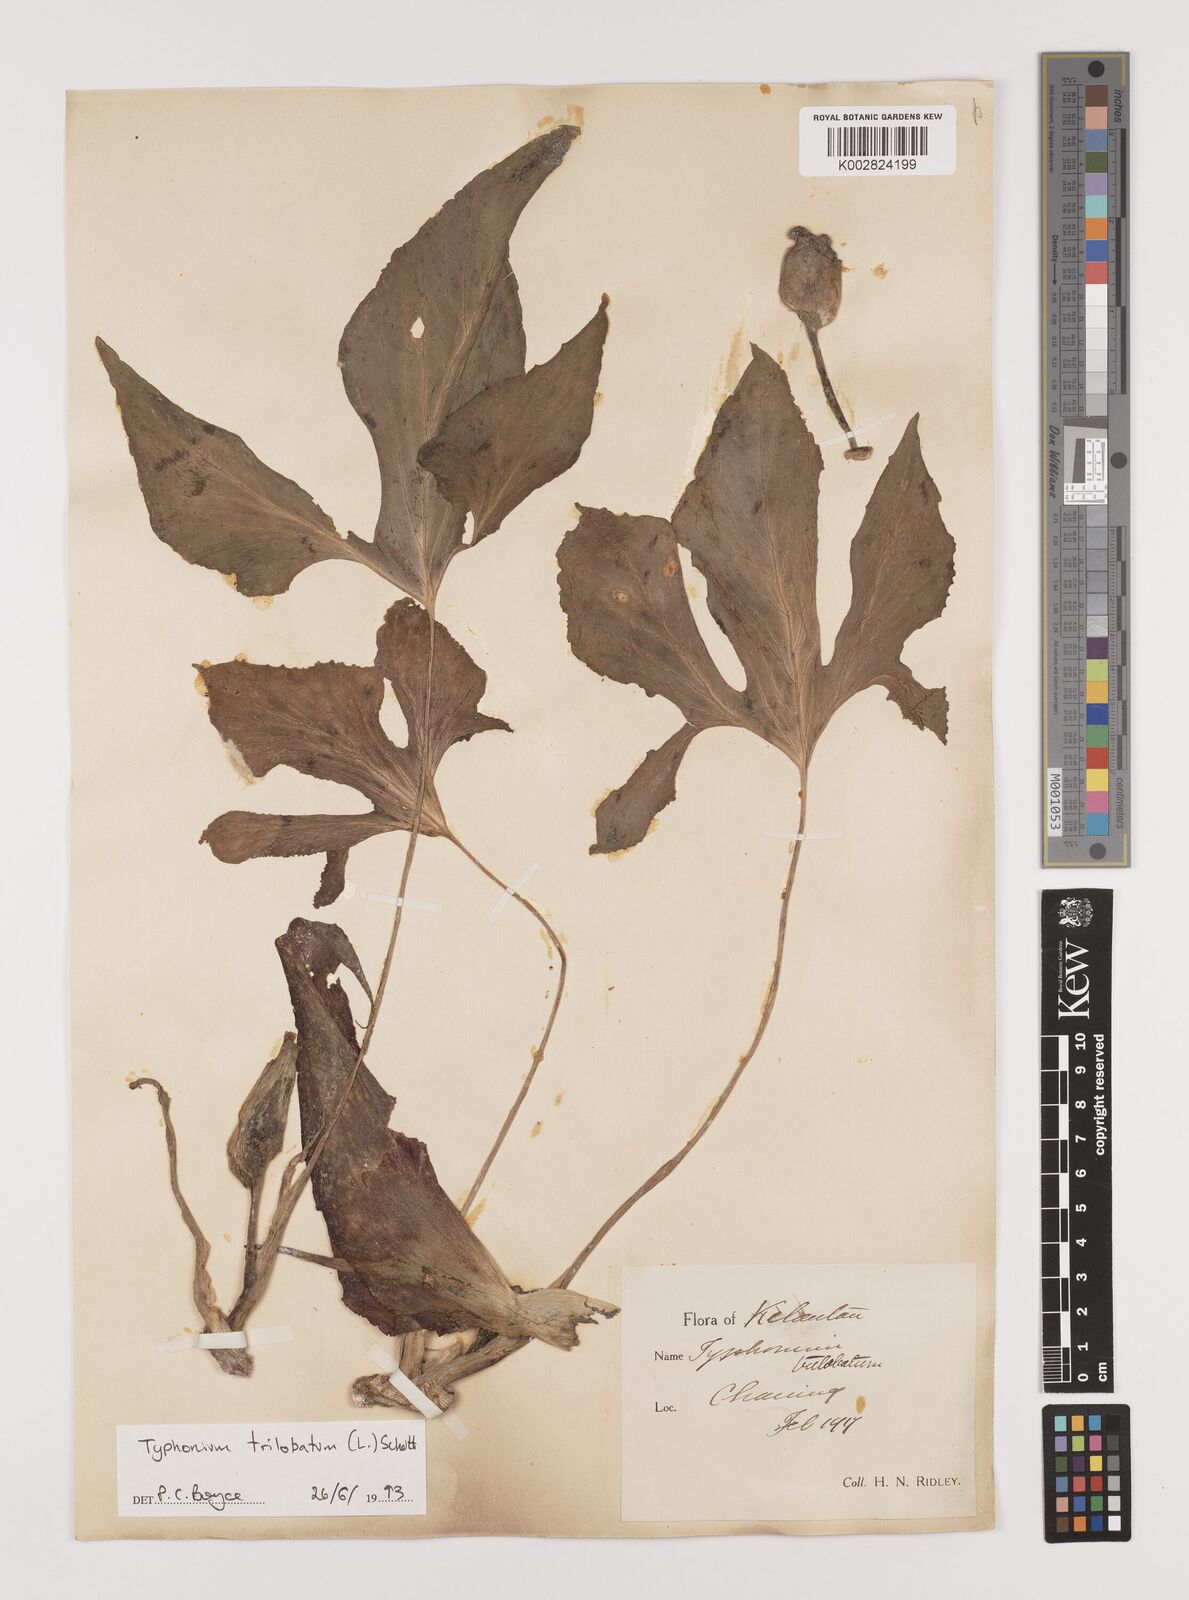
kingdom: Plantae
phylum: Tracheophyta
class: Liliopsida
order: Alismatales
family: Araceae
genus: Typhonium
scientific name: Typhonium trilobatum
